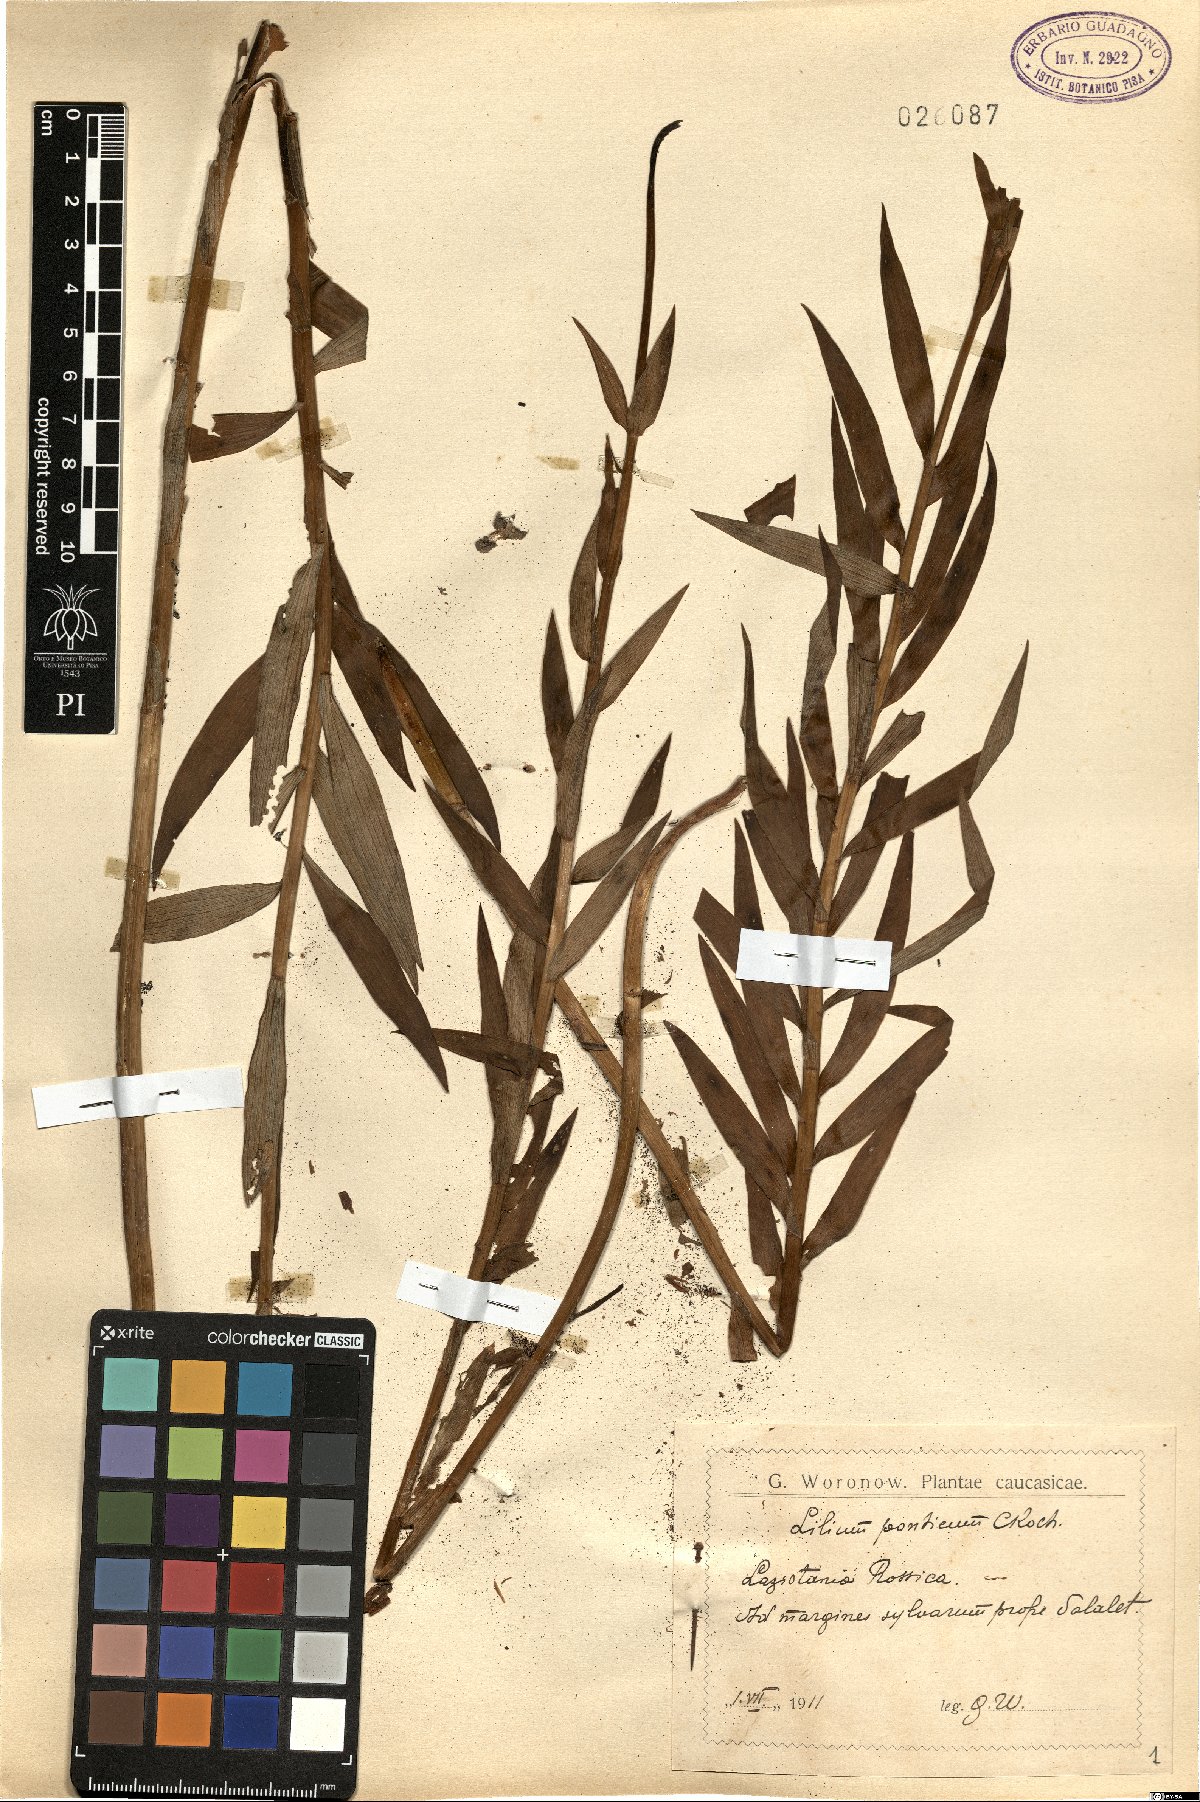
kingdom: Plantae
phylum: Tracheophyta
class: Liliopsida
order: Liliales
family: Liliaceae
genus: Lilium
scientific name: Lilium ponticum
